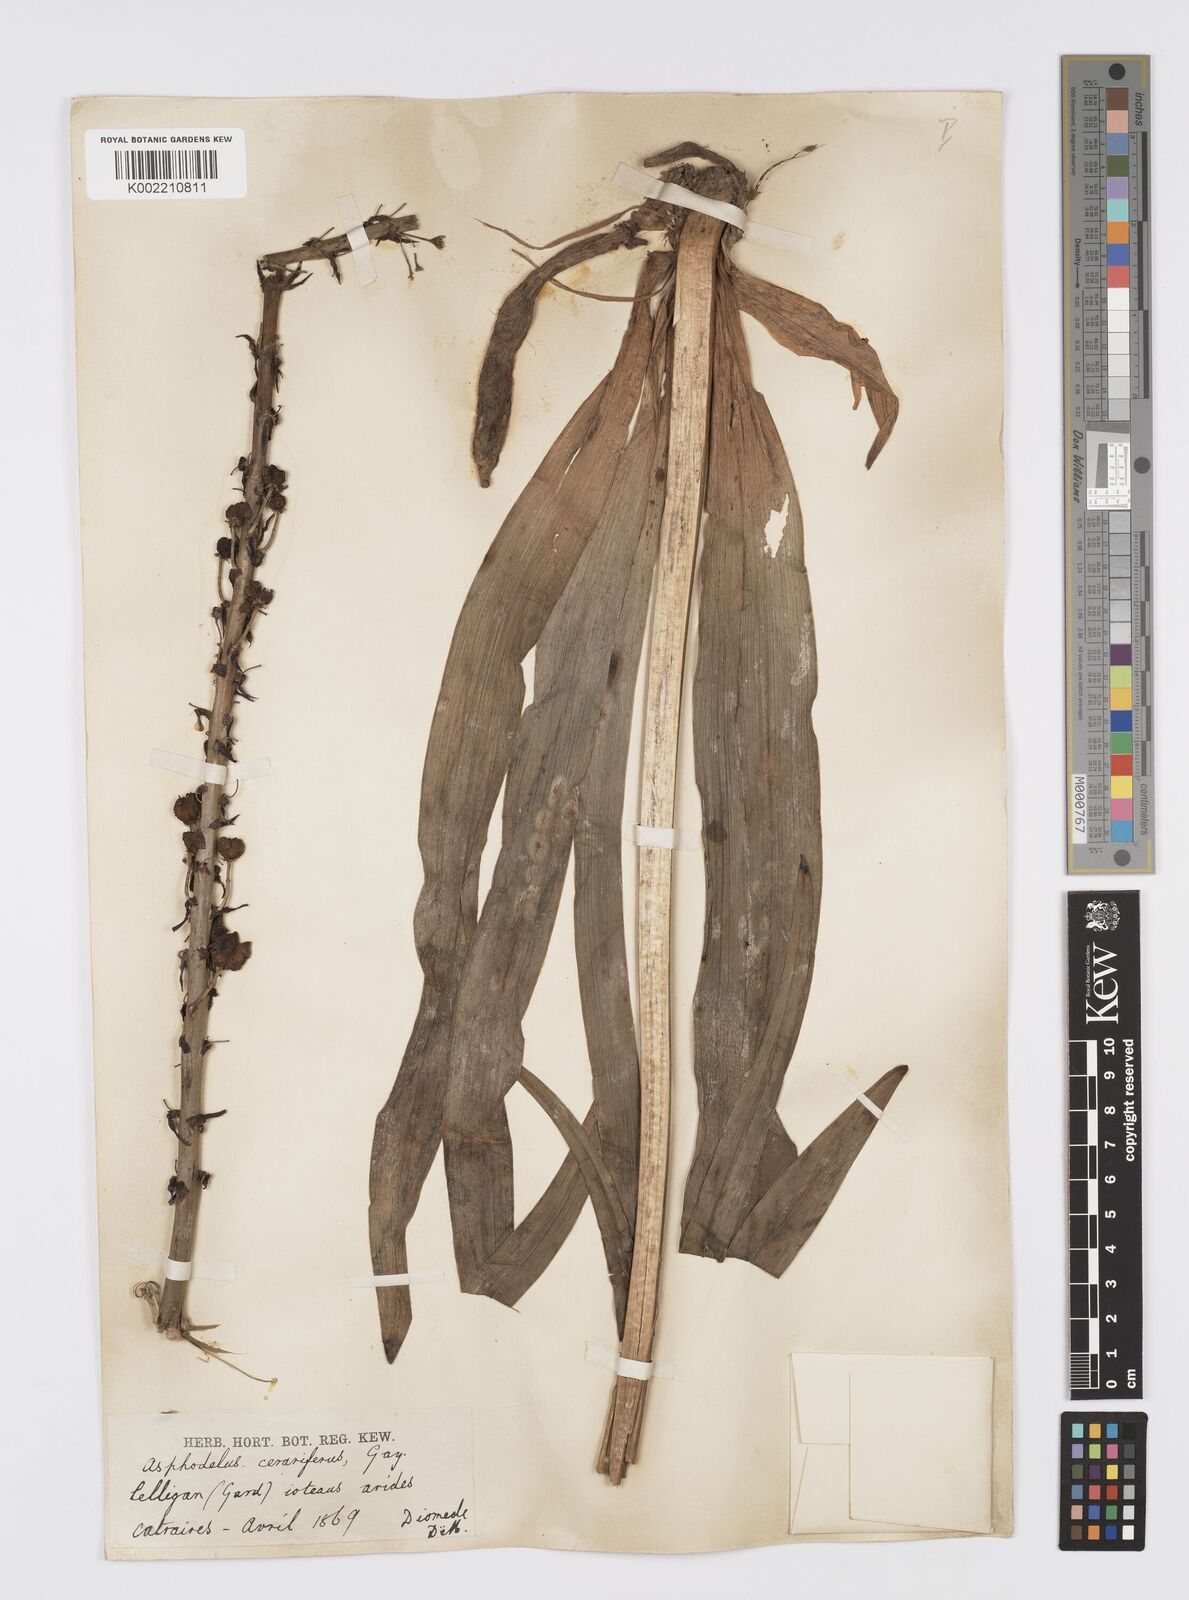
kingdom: Plantae
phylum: Tracheophyta
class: Liliopsida
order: Asparagales
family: Asphodelaceae
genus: Asphodelus
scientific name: Asphodelus cerasifer
